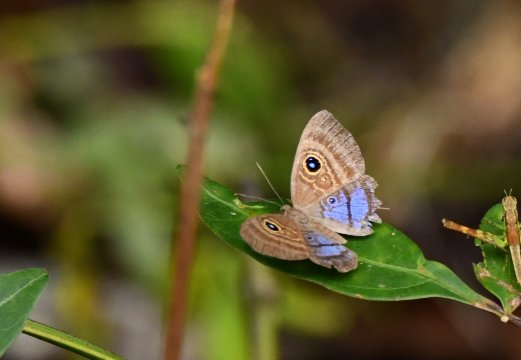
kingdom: Animalia
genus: Mesosemia
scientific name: Mesosemia
